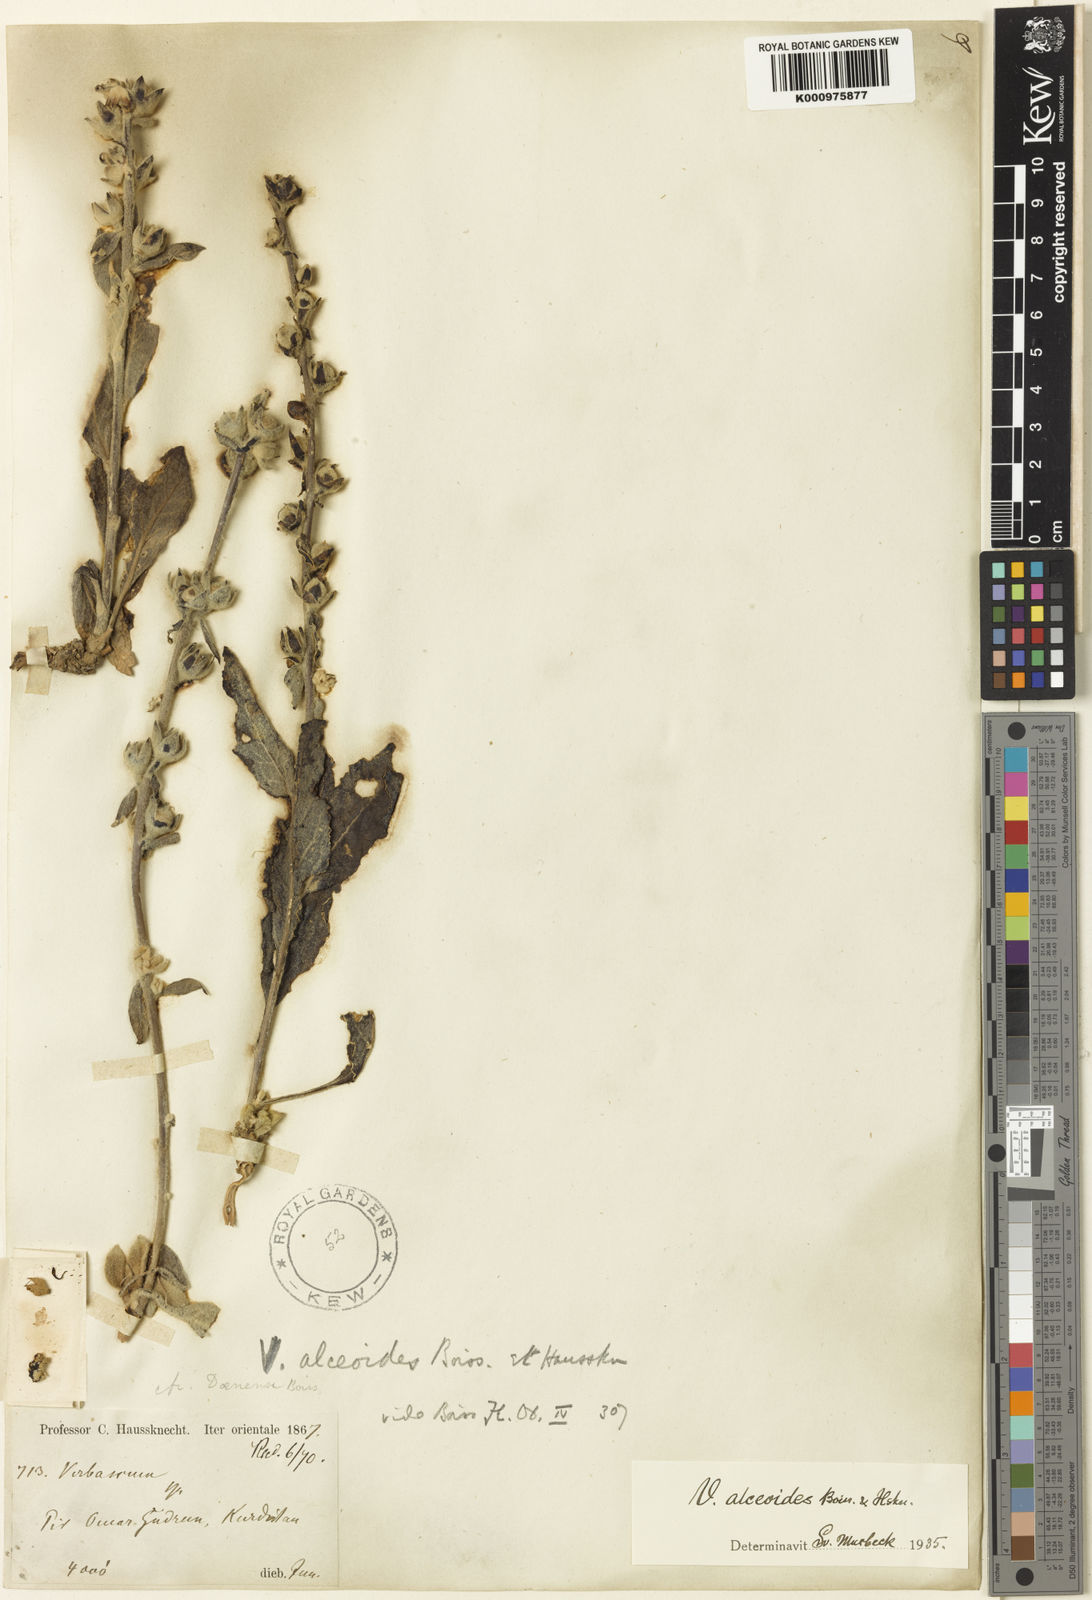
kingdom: Plantae
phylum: Tracheophyta
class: Magnoliopsida
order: Lamiales
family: Scrophulariaceae
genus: Verbascum
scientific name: Verbascum alceoides
